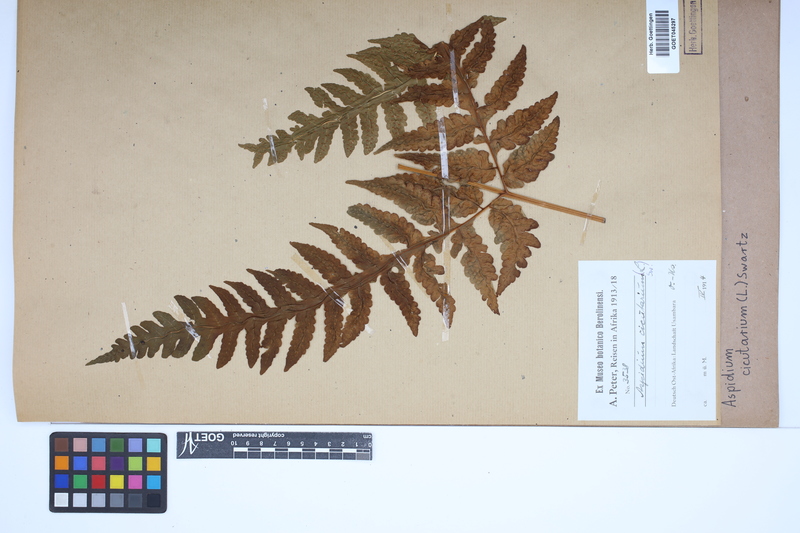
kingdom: Plantae
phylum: Tracheophyta
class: Polypodiopsida
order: Polypodiales
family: Tectariaceae
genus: Tectaria
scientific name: Tectaria cicutaria
